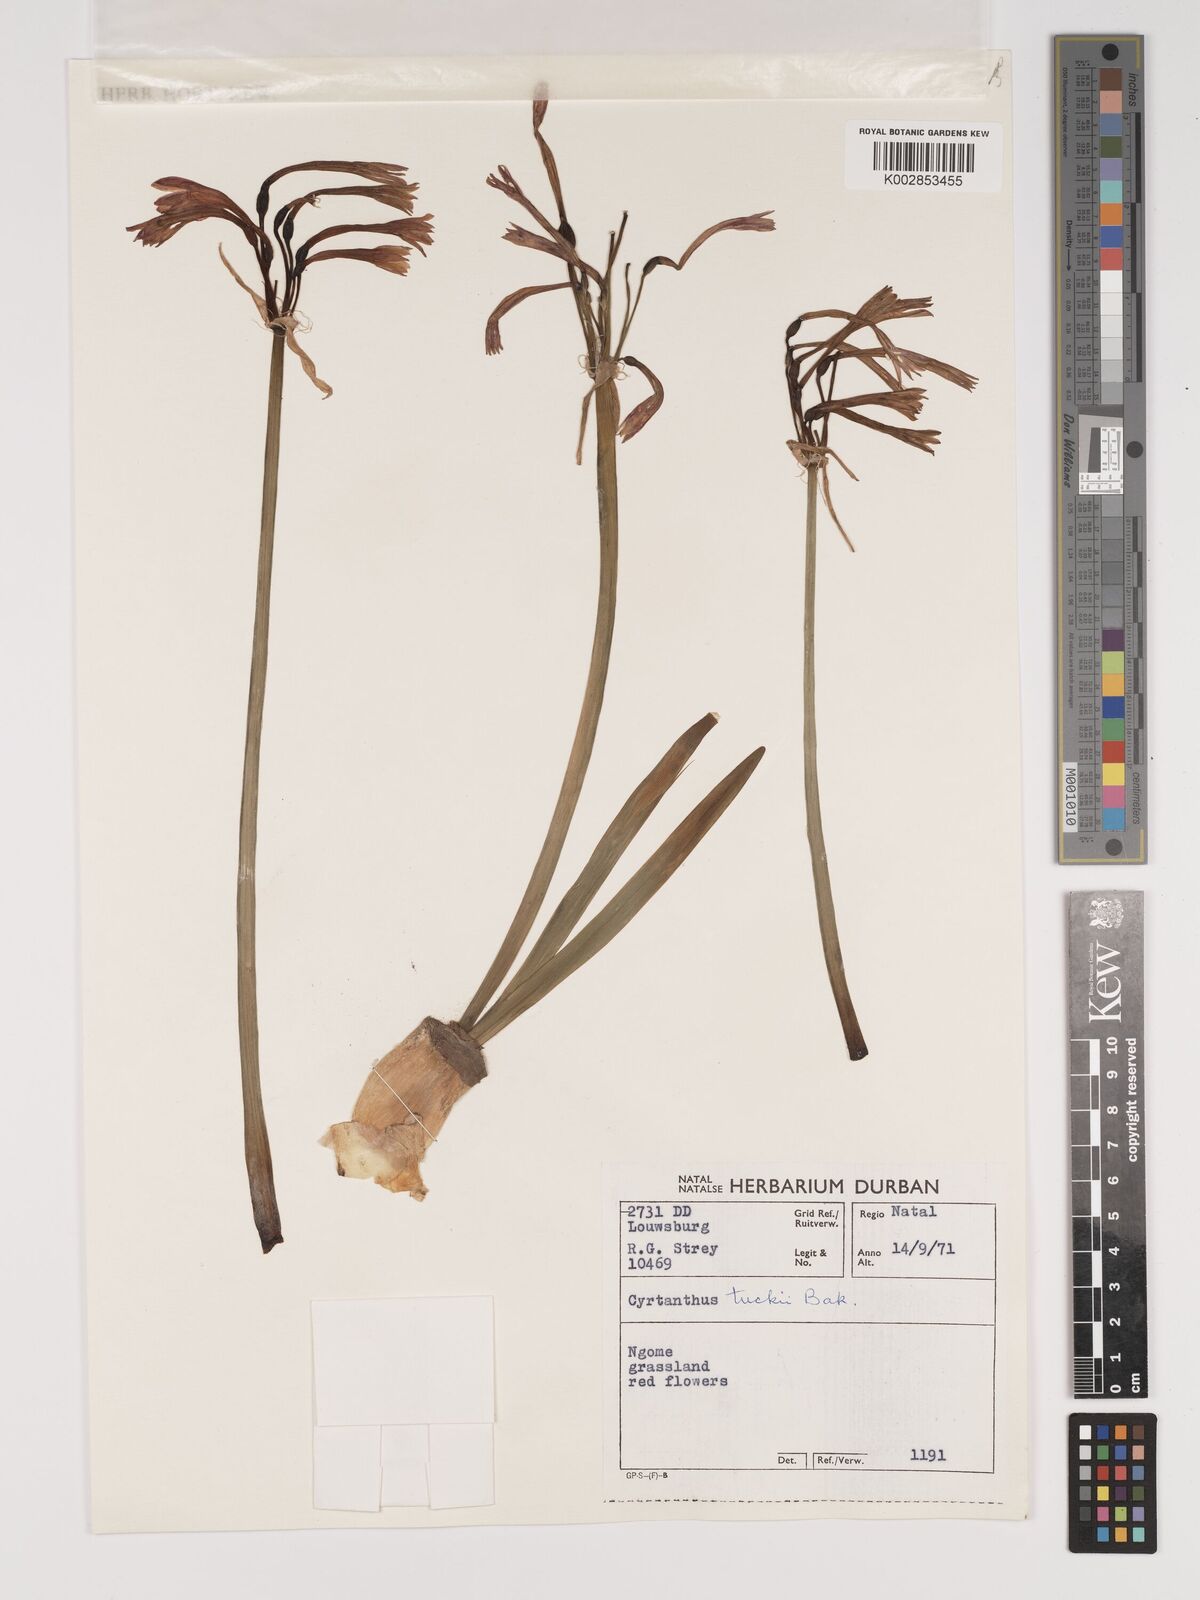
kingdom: Plantae
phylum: Tracheophyta
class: Liliopsida
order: Asparagales
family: Amaryllidaceae
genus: Cyrtanthus
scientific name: Cyrtanthus tuckii
